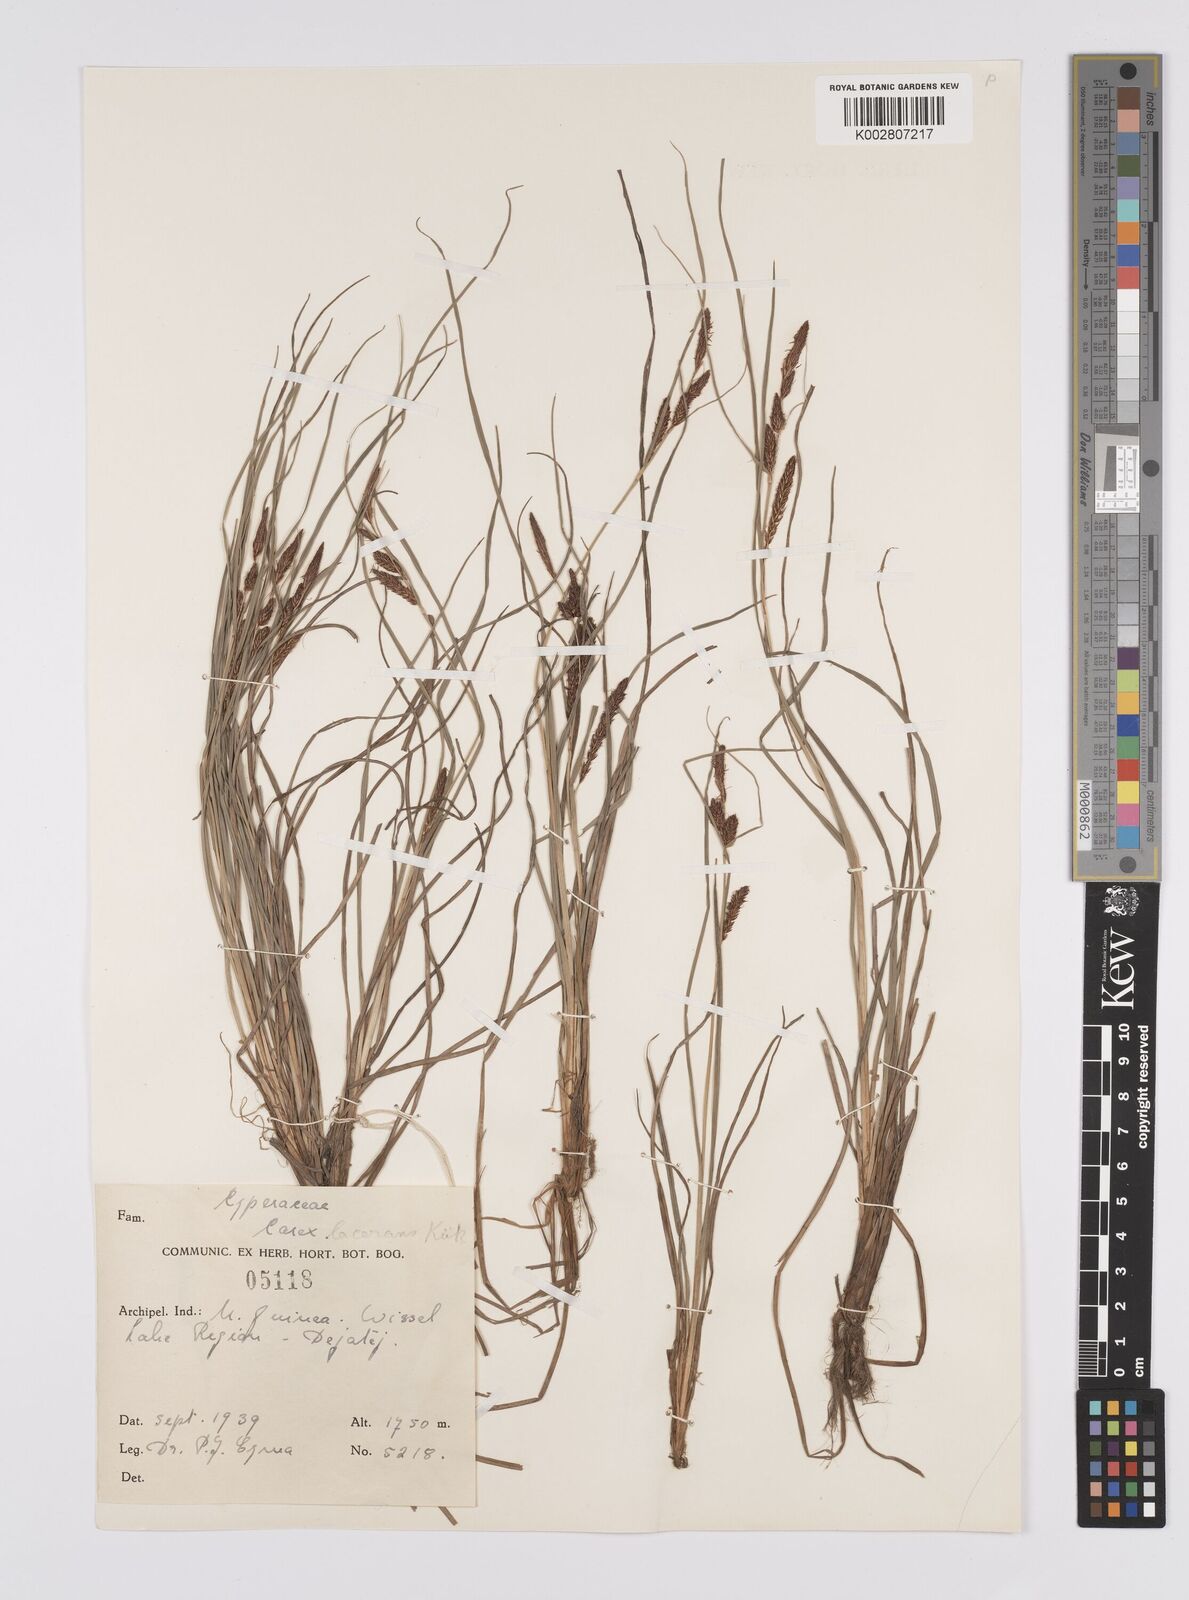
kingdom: Plantae
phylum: Tracheophyta
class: Liliopsida
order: Poales
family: Cyperaceae
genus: Carex
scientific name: Carex gaudichaudiana
